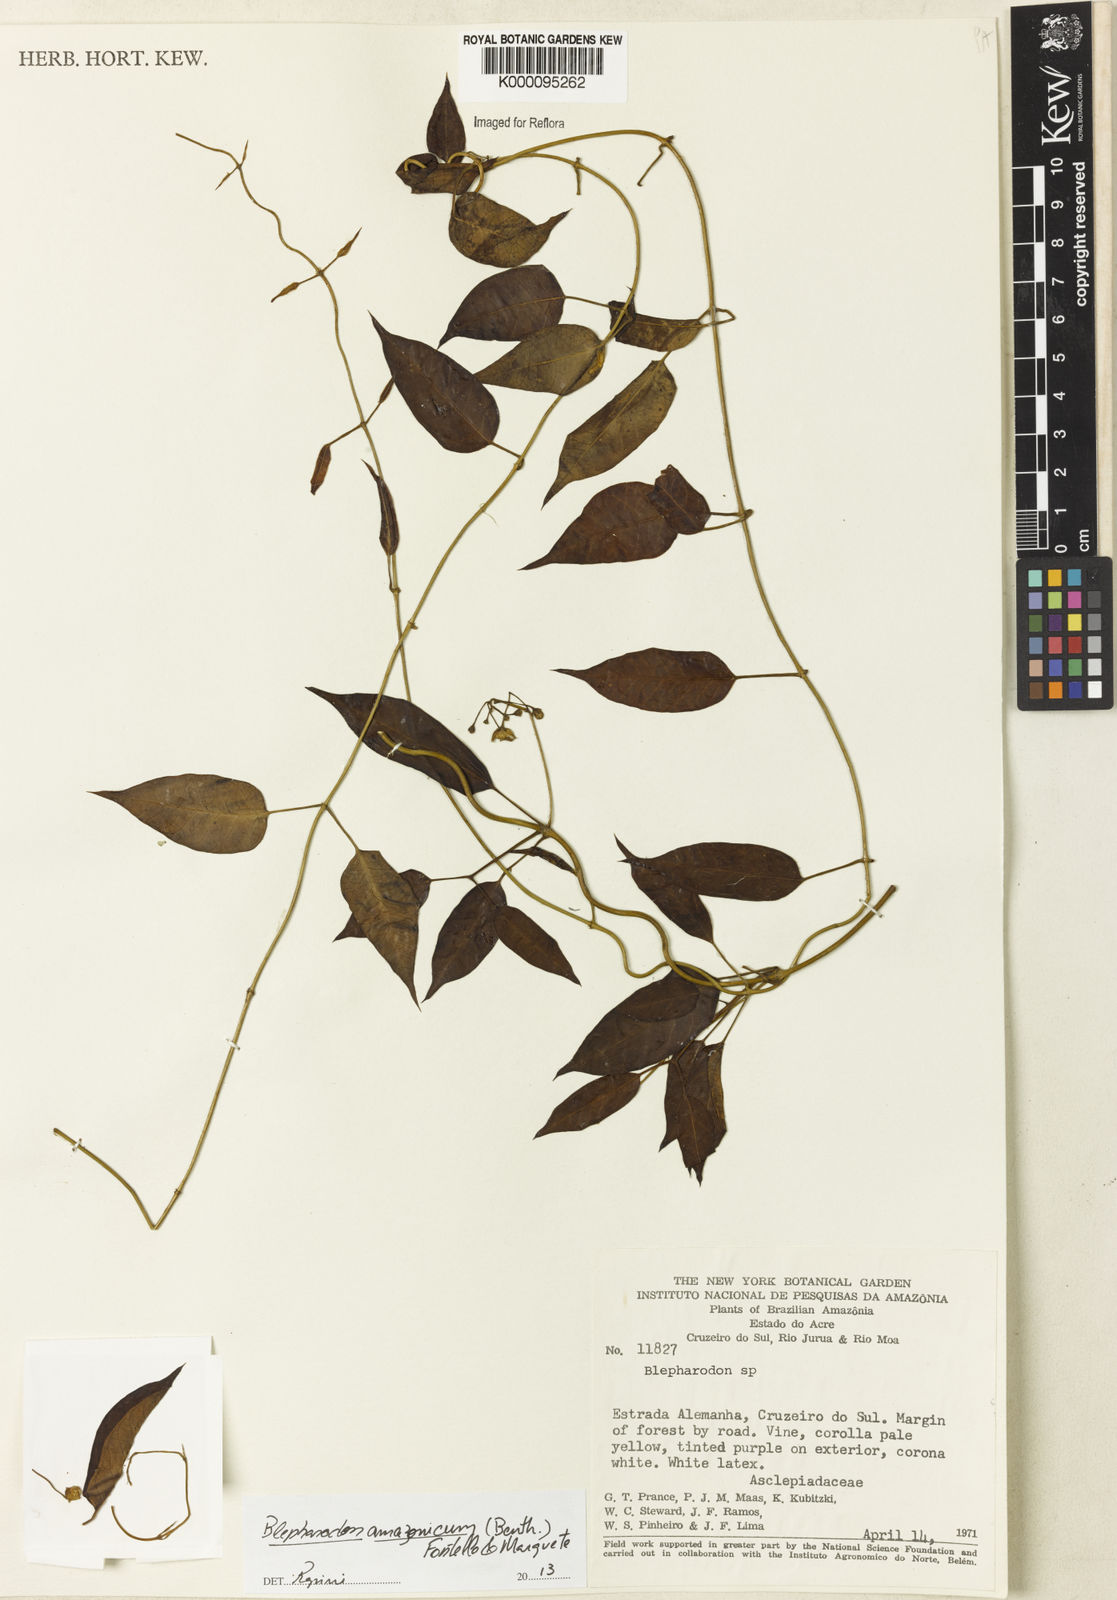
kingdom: Plantae
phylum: Tracheophyta
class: Magnoliopsida
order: Gentianales
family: Apocynaceae
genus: Blepharodon
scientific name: Blepharodon amazonicum
